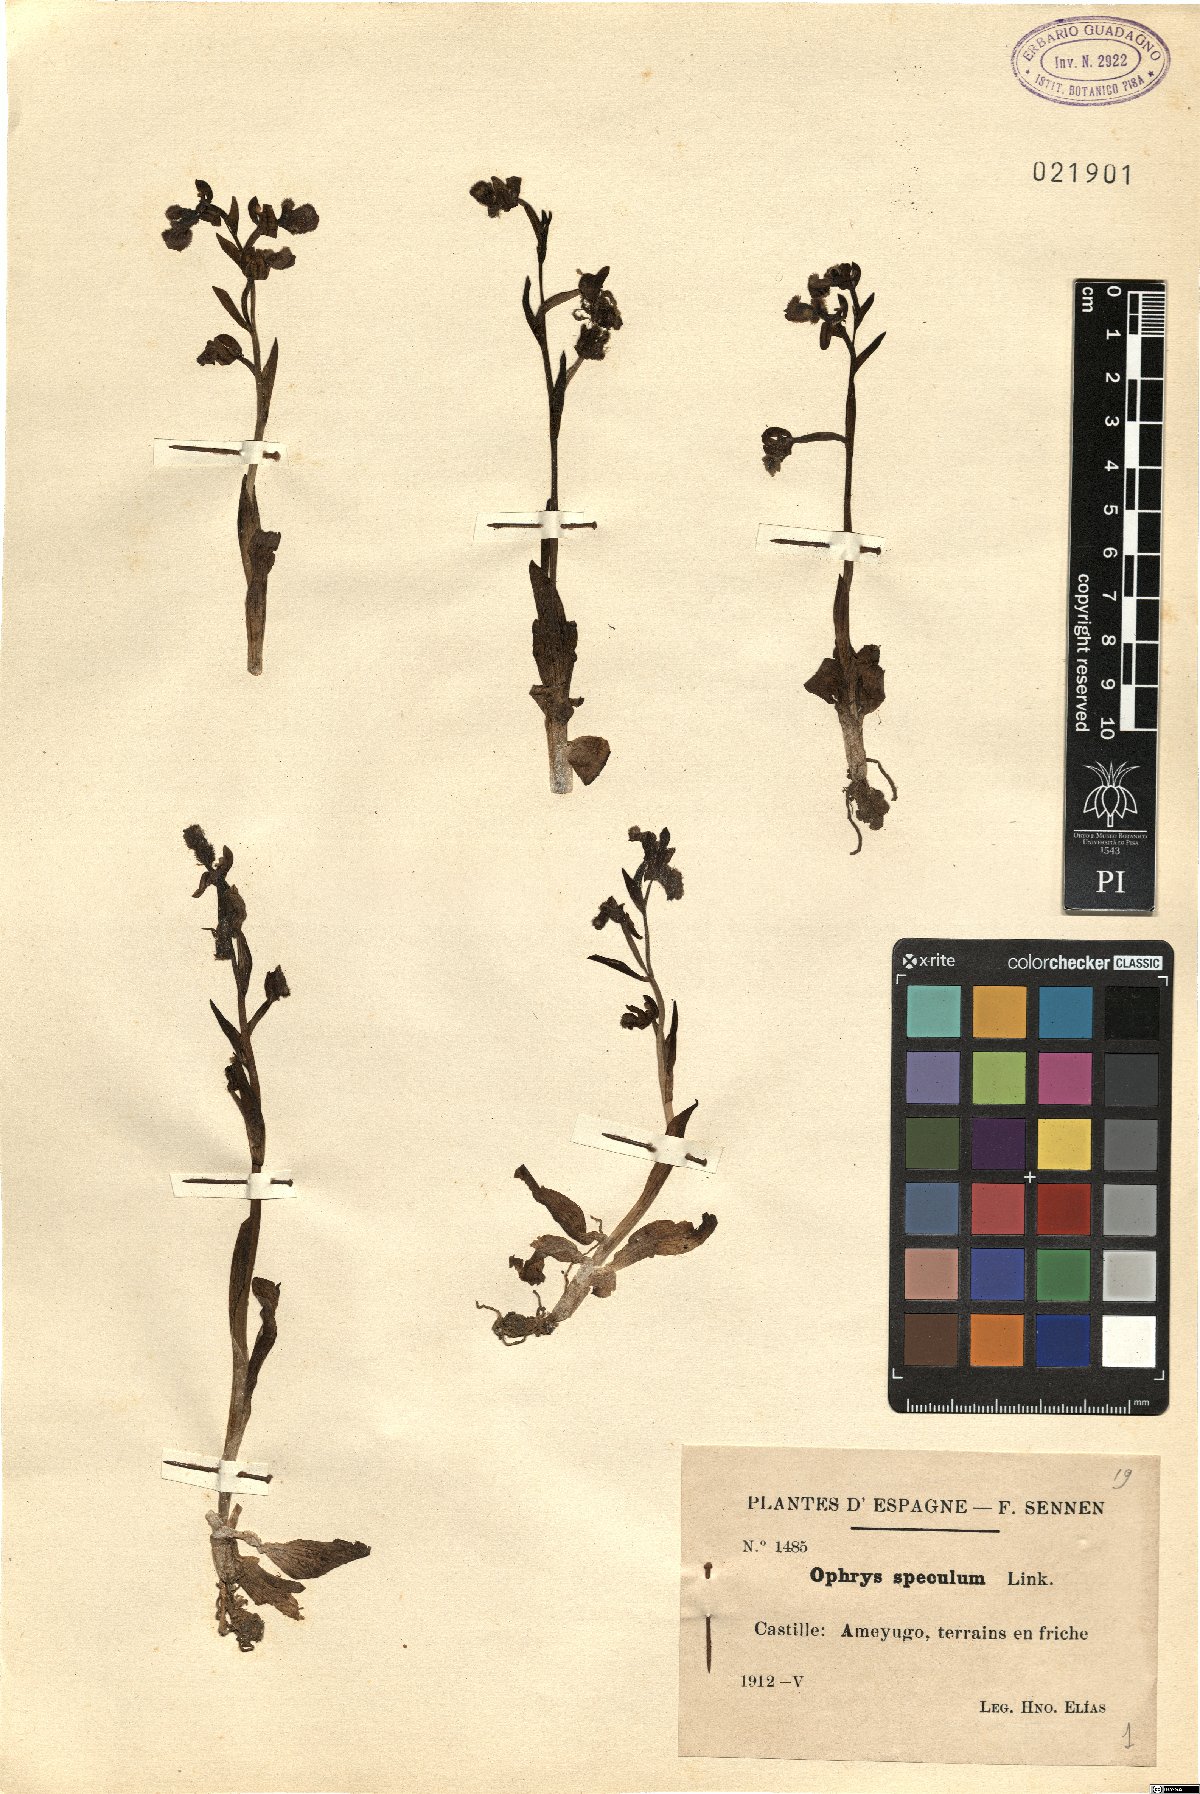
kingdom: Plantae
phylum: Tracheophyta
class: Liliopsida
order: Asparagales
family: Orchidaceae
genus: Ophrys
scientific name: Ophrys speculum
